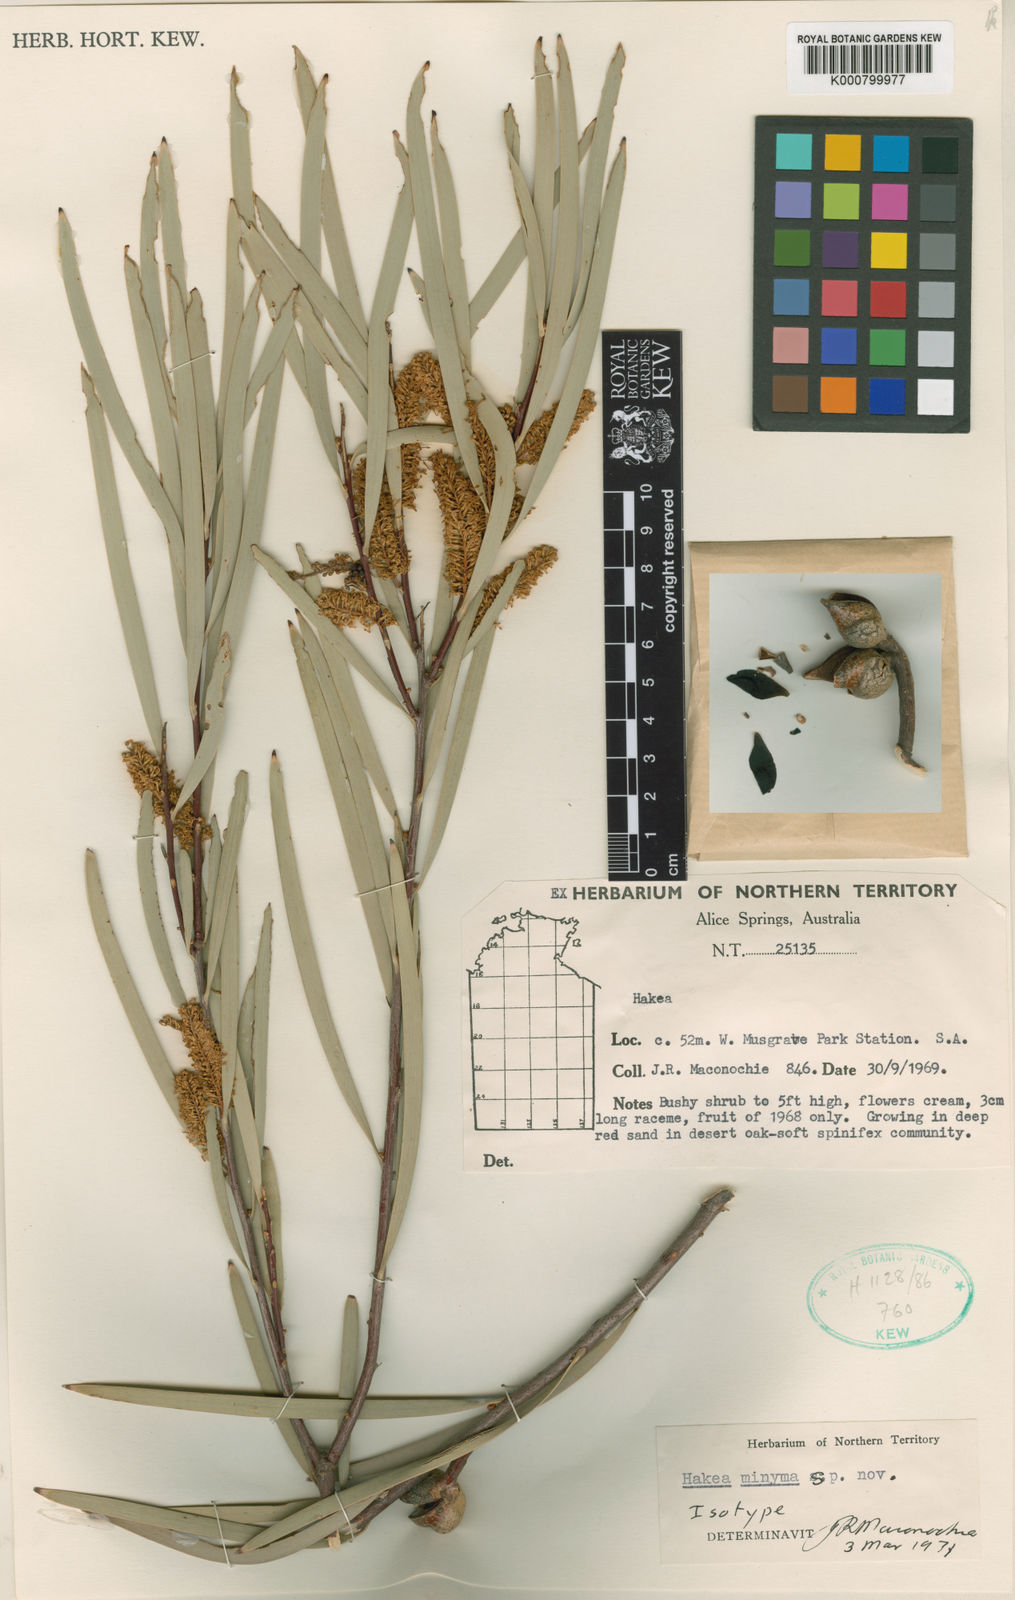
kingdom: Plantae
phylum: Tracheophyta
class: Magnoliopsida
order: Proteales
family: Proteaceae
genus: Hakea
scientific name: Hakea grammatophylla
